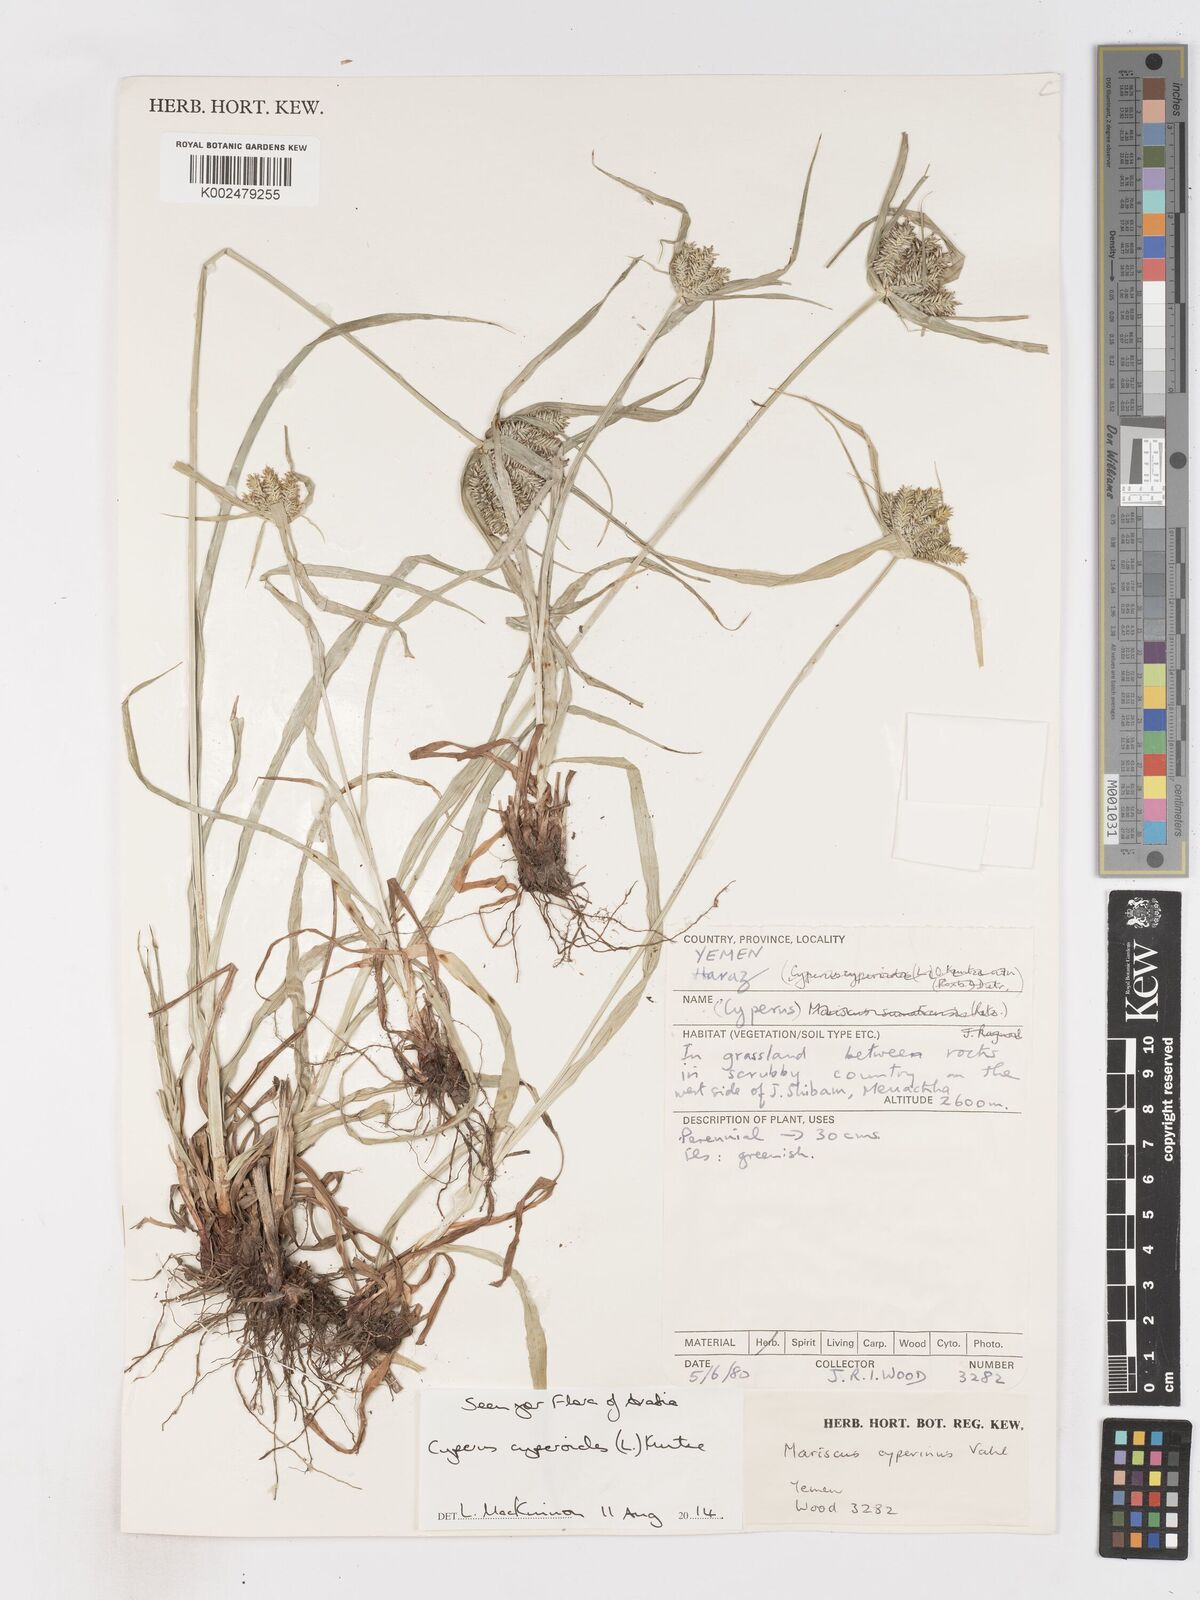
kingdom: Plantae
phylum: Tracheophyta
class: Liliopsida
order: Poales
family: Cyperaceae
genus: Cyperus
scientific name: Cyperus cyperoides
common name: Pacific island flat sedge
